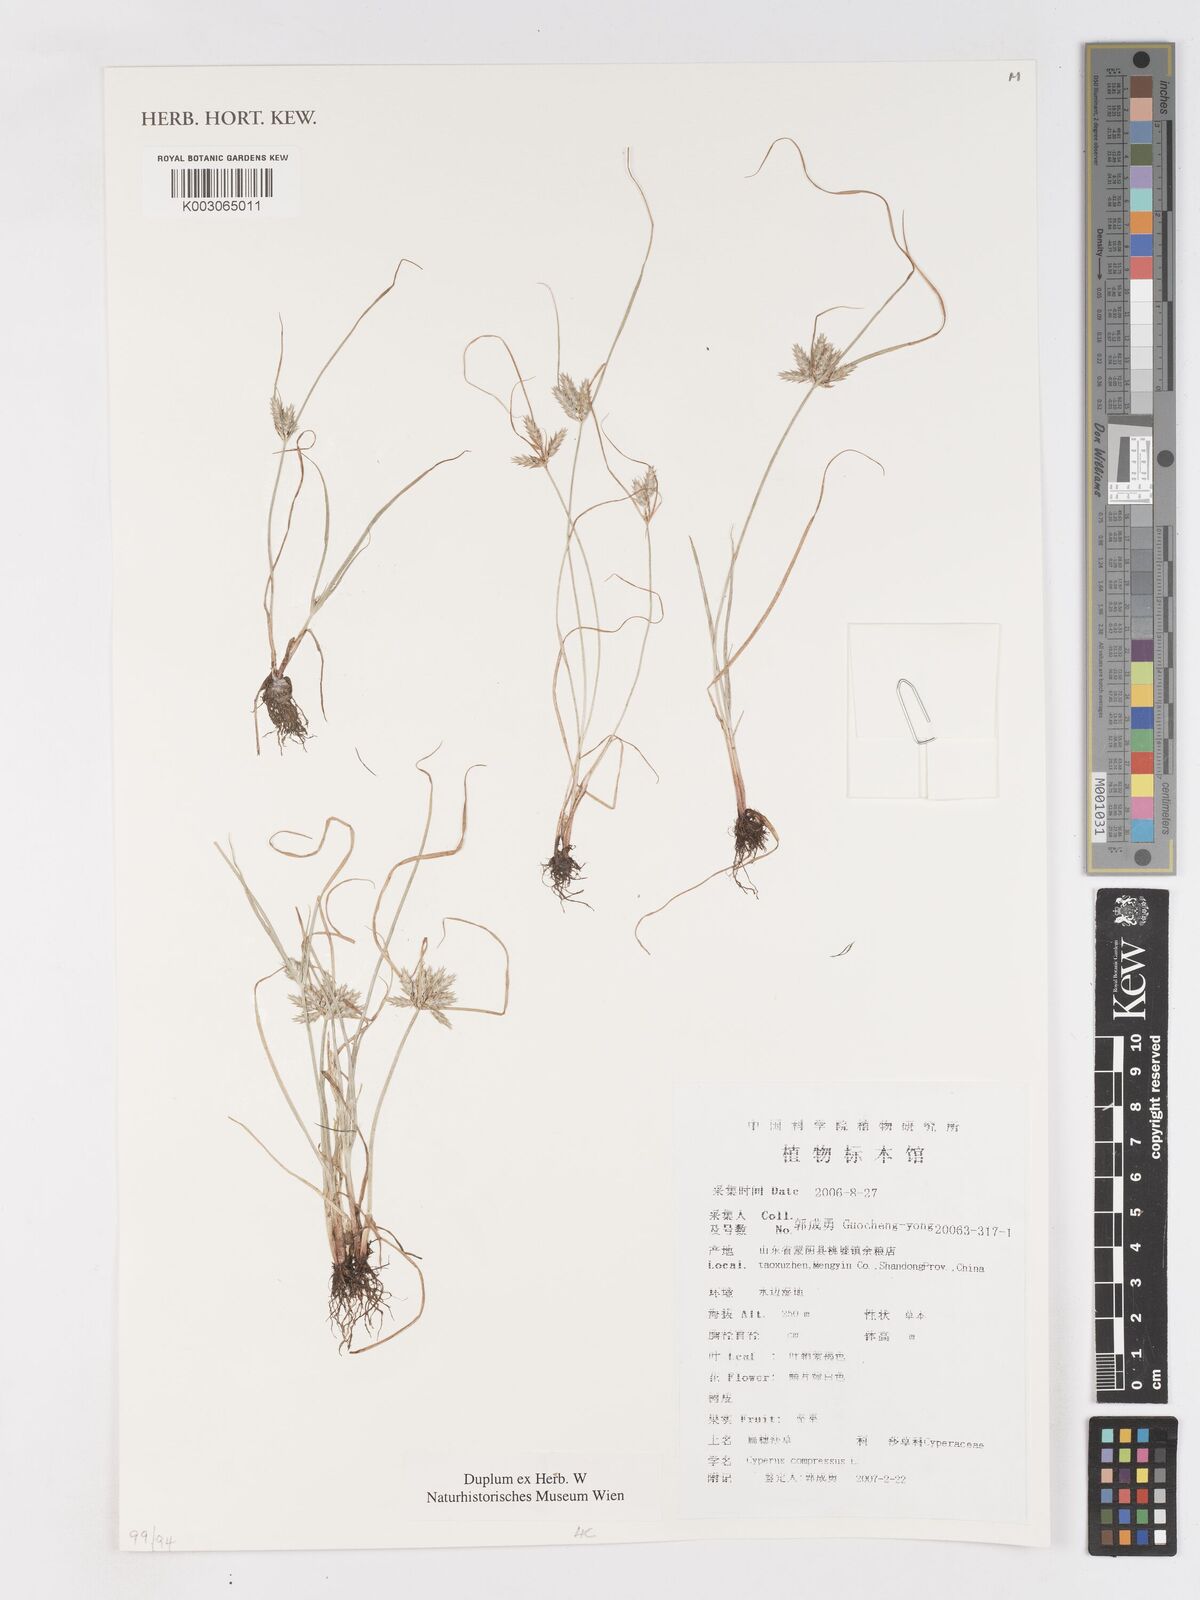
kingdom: Plantae
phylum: Tracheophyta
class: Liliopsida
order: Poales
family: Cyperaceae
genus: Cyperus
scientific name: Cyperus compressus
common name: Poorland flatsedge
